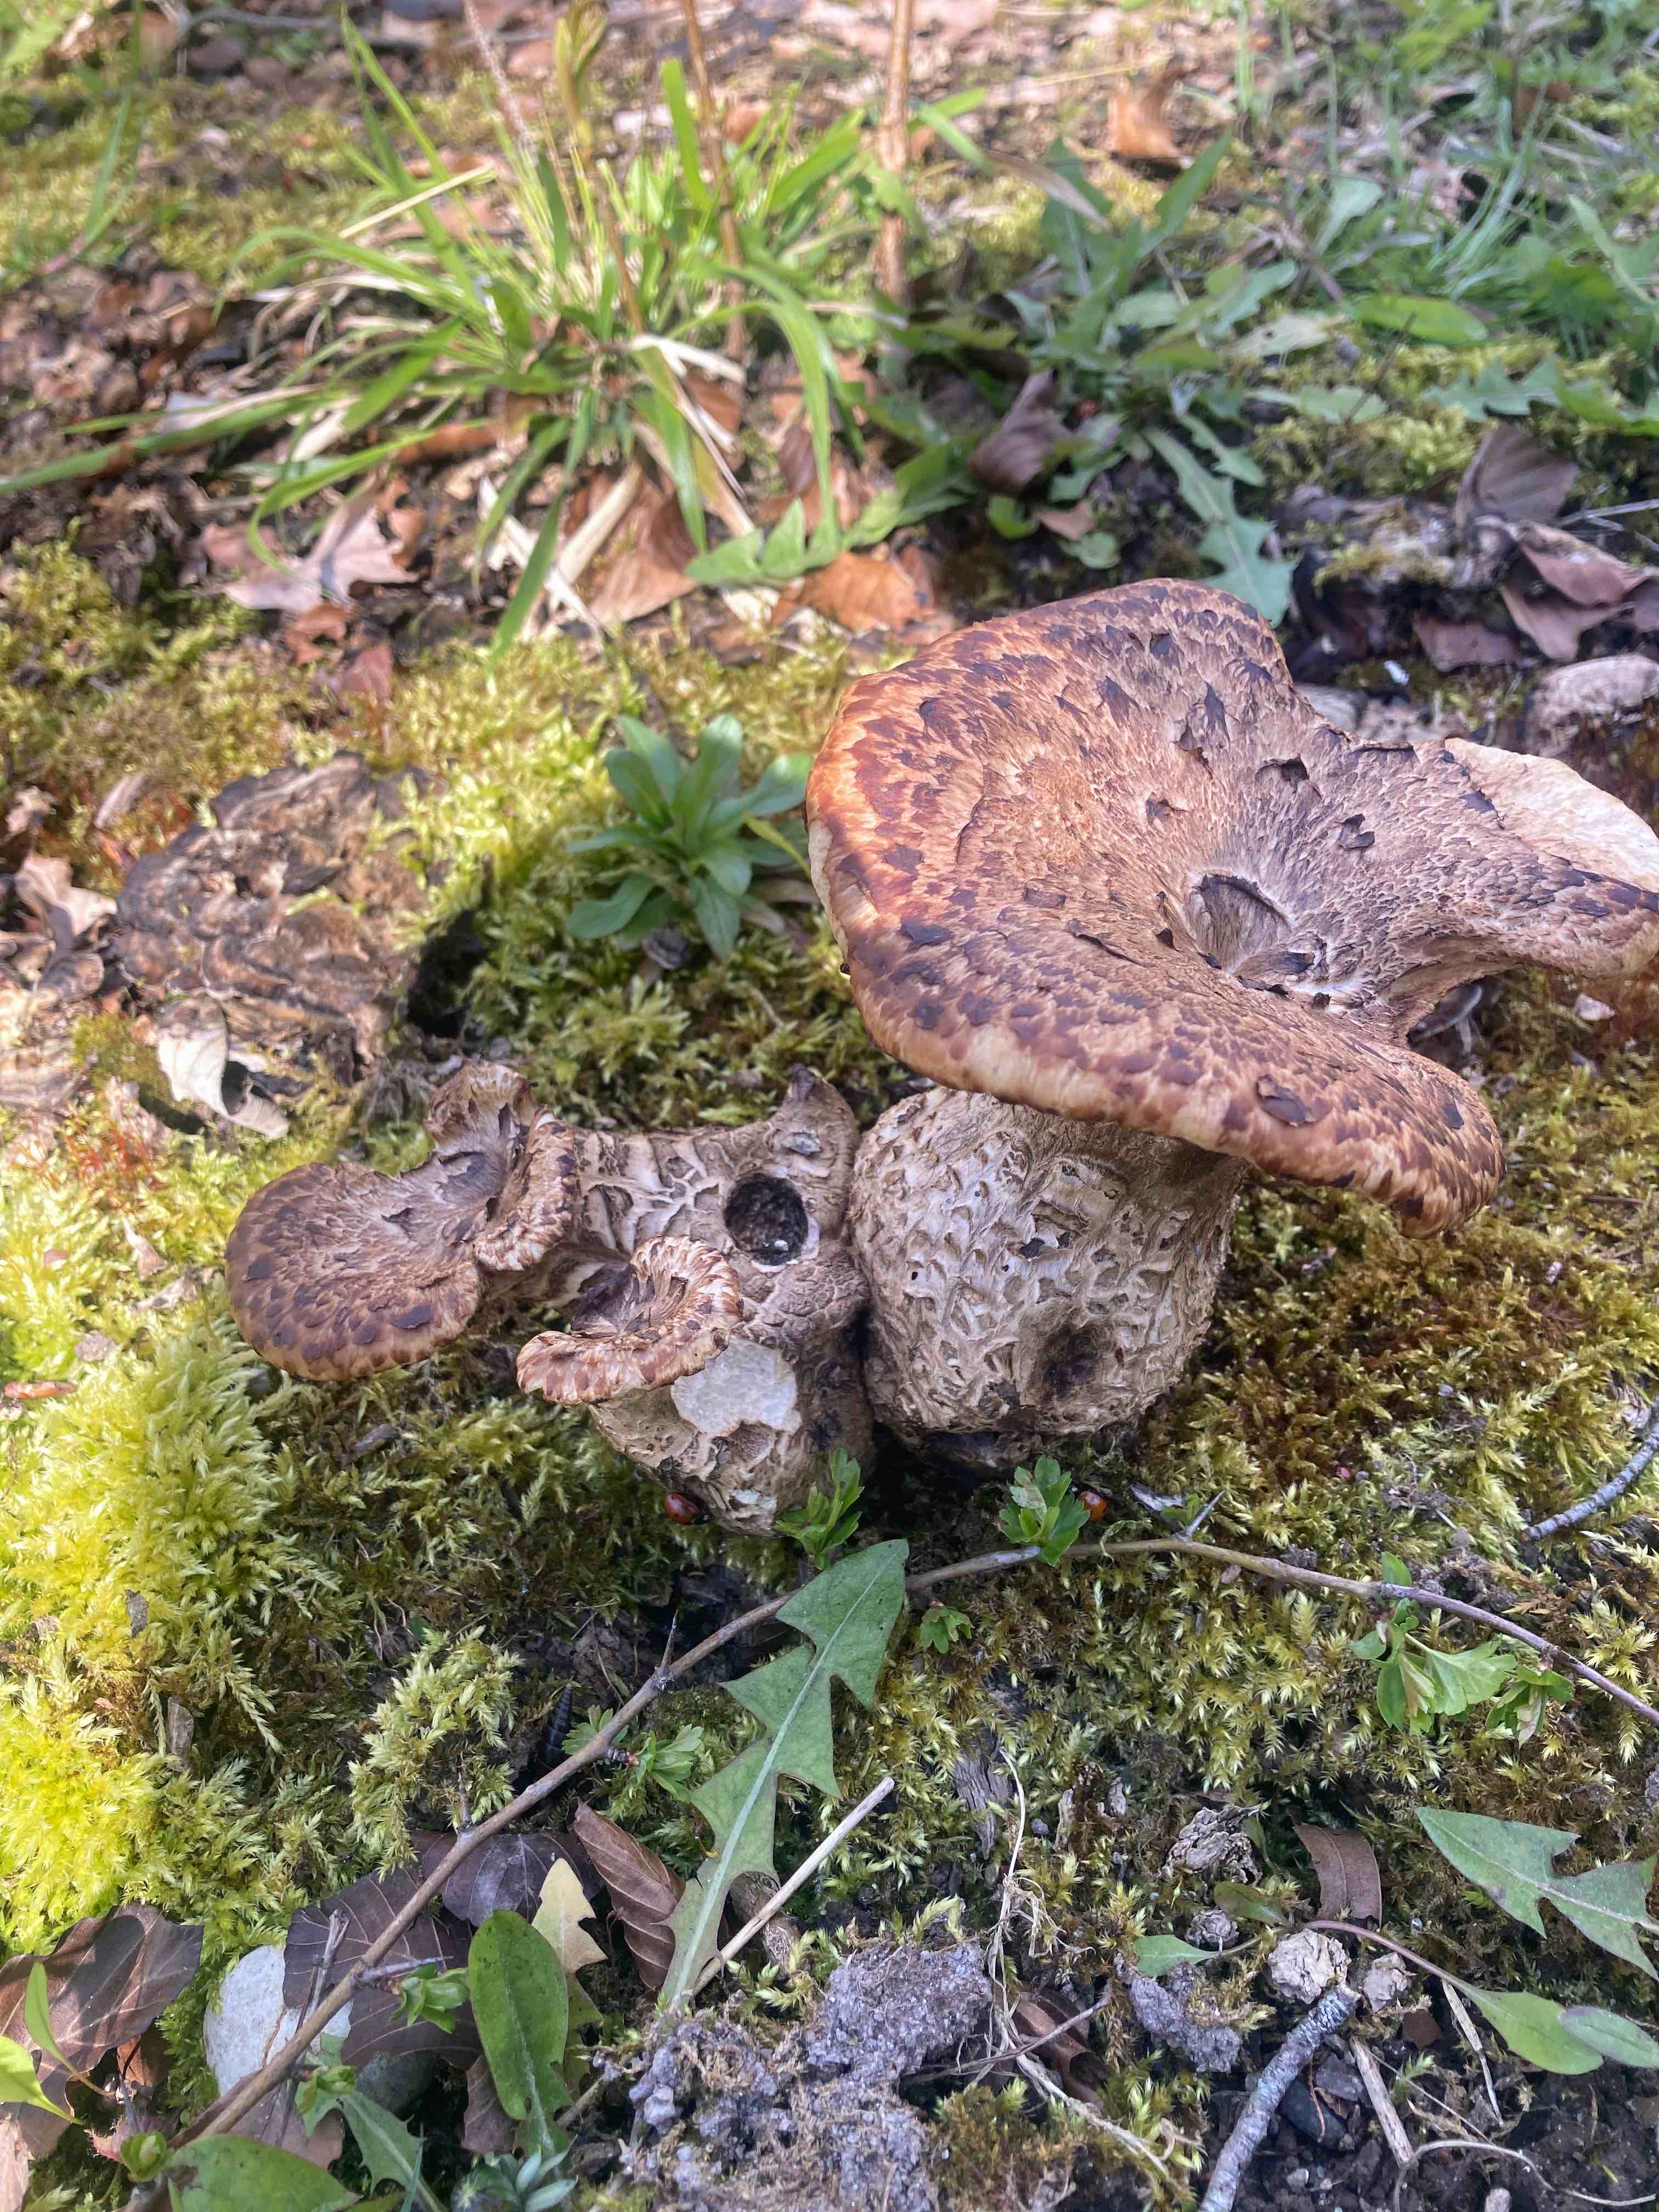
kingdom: Fungi
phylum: Basidiomycota
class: Agaricomycetes
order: Polyporales
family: Polyporaceae
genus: Cerioporus
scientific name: Cerioporus squamosus
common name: skællet stilkporesvamp
